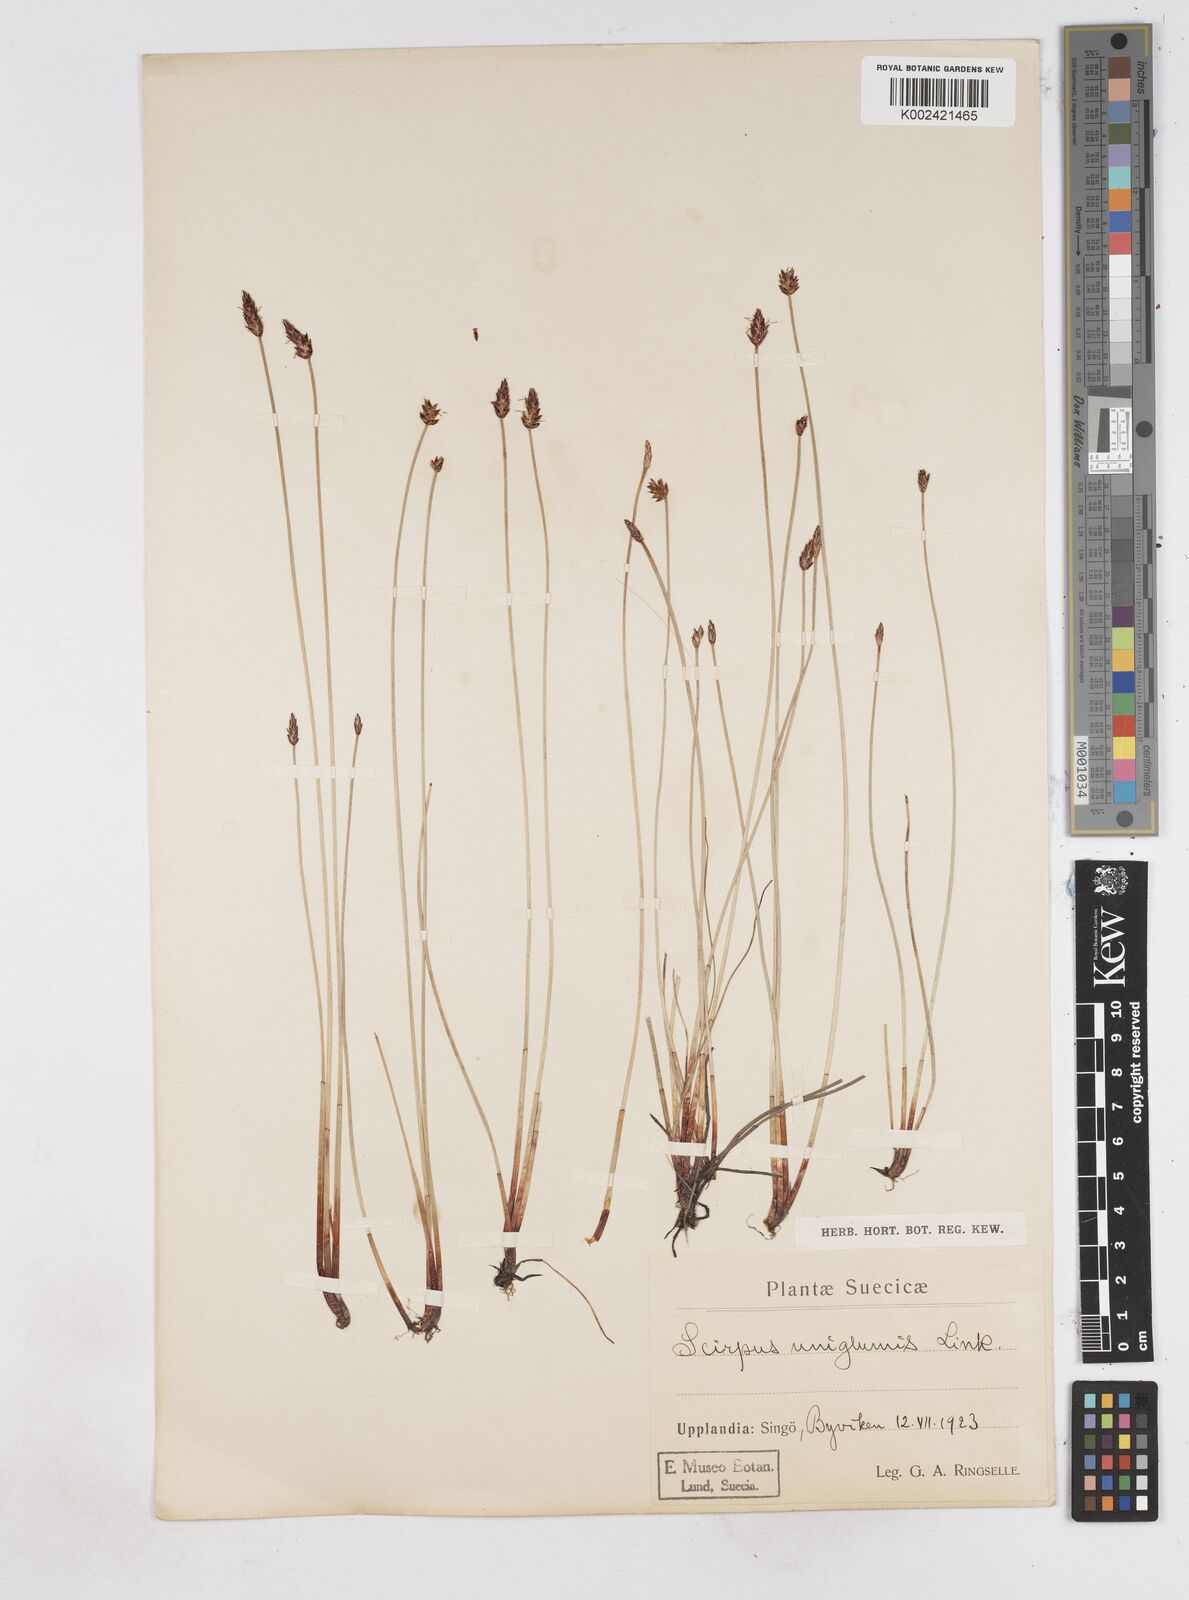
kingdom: Plantae
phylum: Tracheophyta
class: Liliopsida
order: Poales
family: Cyperaceae
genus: Eleocharis
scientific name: Eleocharis uniglumis
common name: Slender spike-rush
